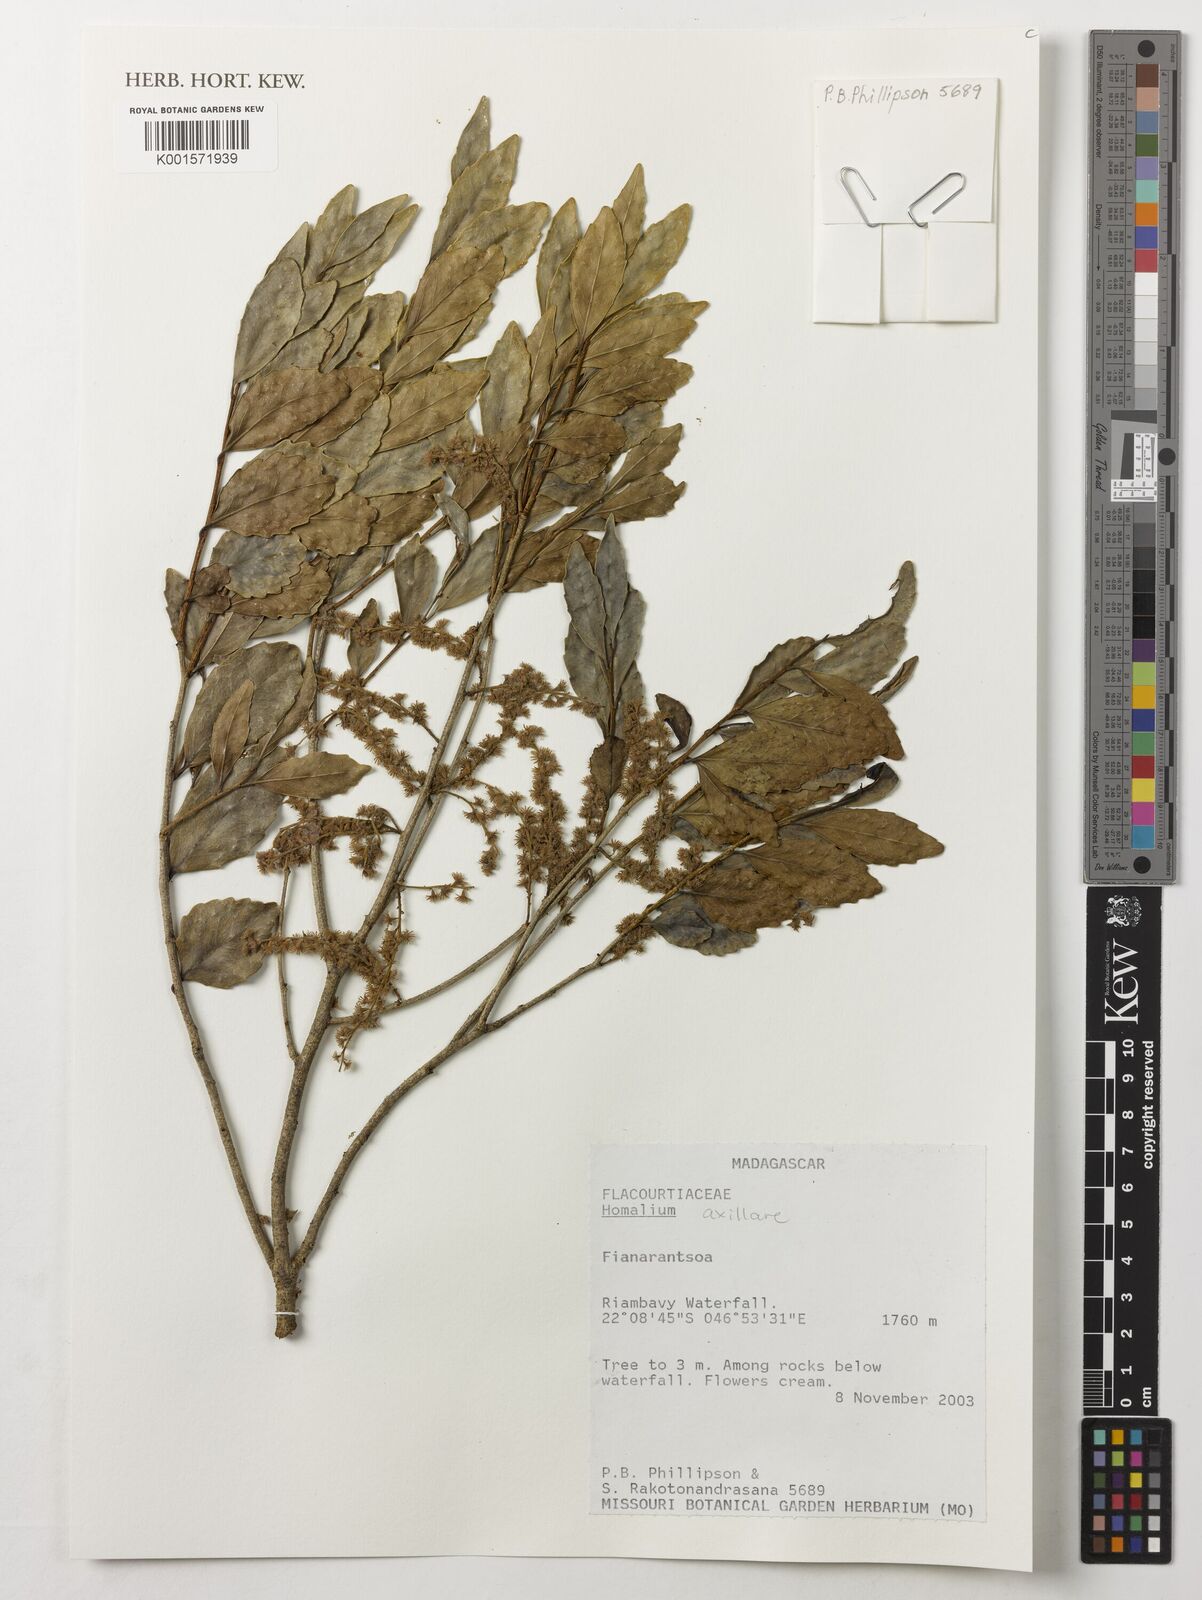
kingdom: Plantae
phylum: Tracheophyta
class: Magnoliopsida
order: Malpighiales
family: Salicaceae
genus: Homalium
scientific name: Homalium axillare
